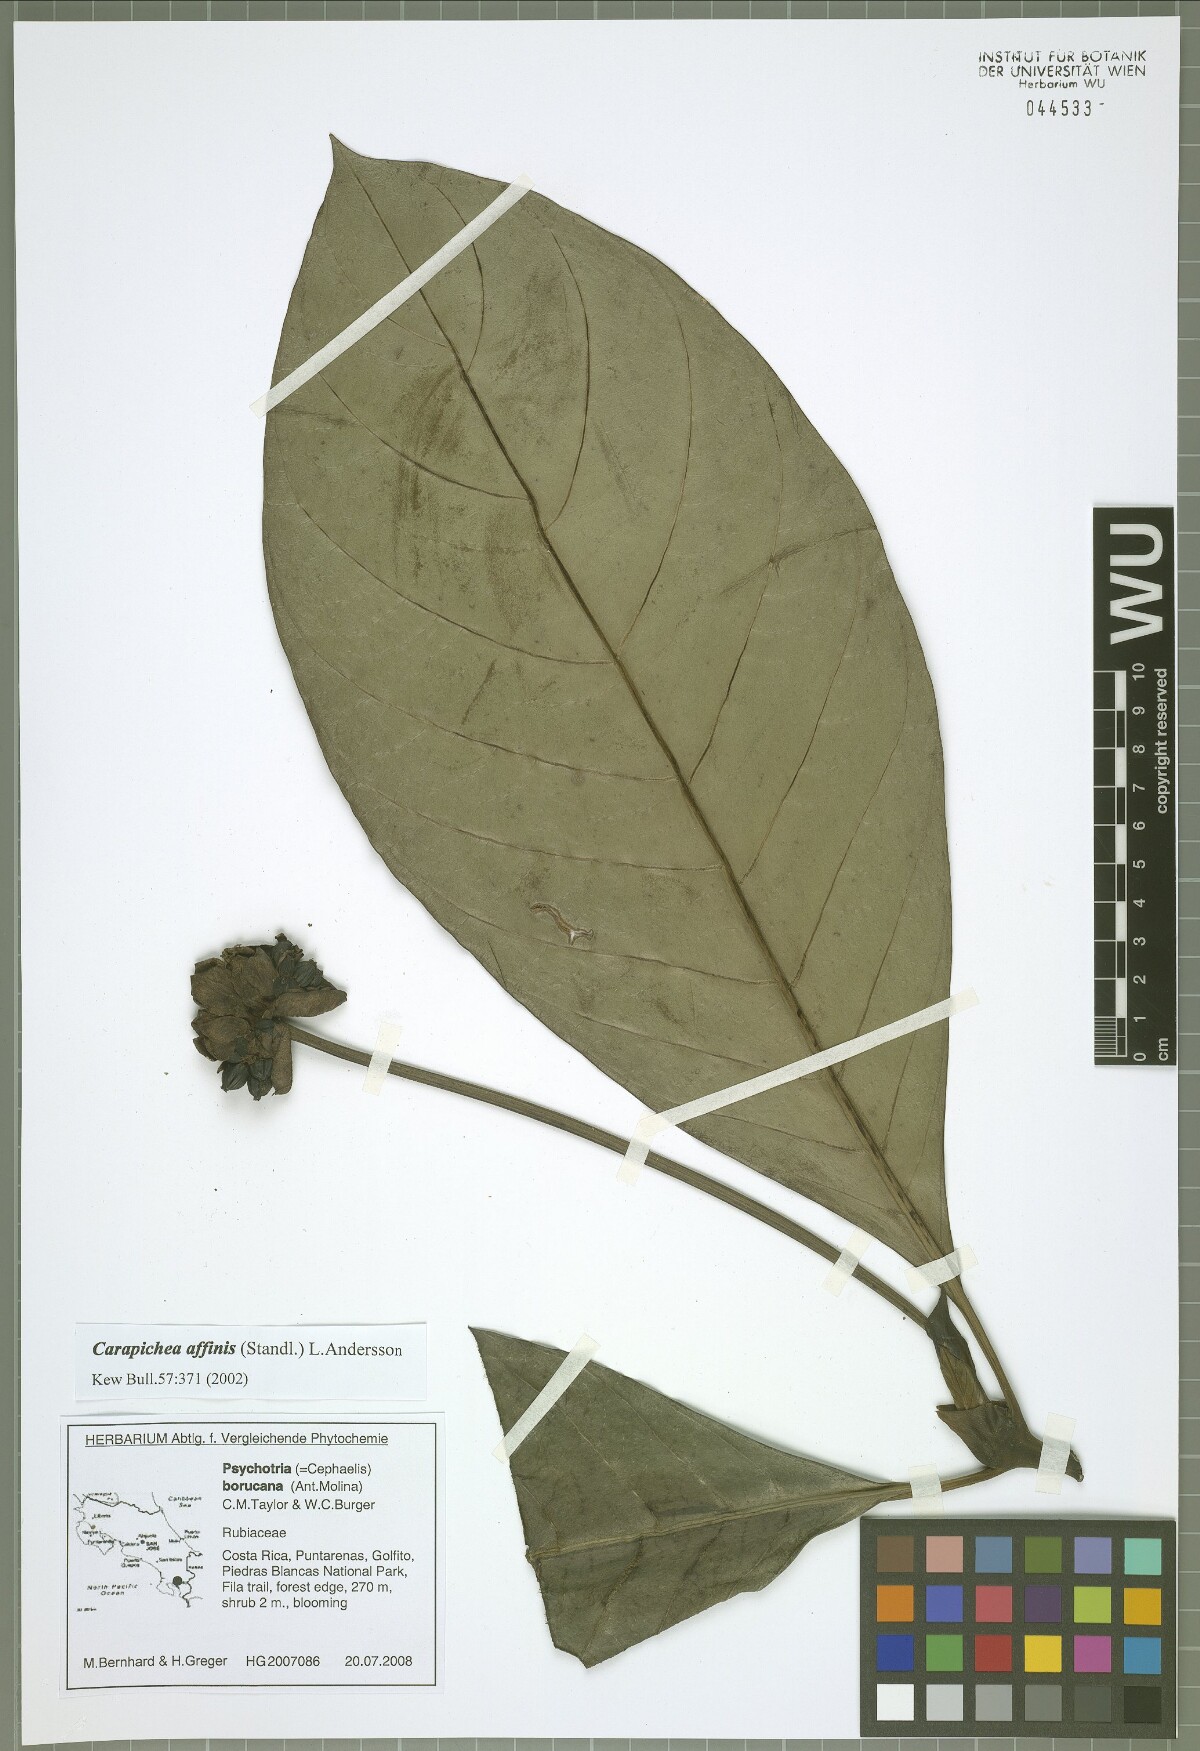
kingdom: Plantae
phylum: Tracheophyta
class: Magnoliopsida
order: Gentianales
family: Rubiaceae
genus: Carapichea
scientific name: Carapichea affinis
